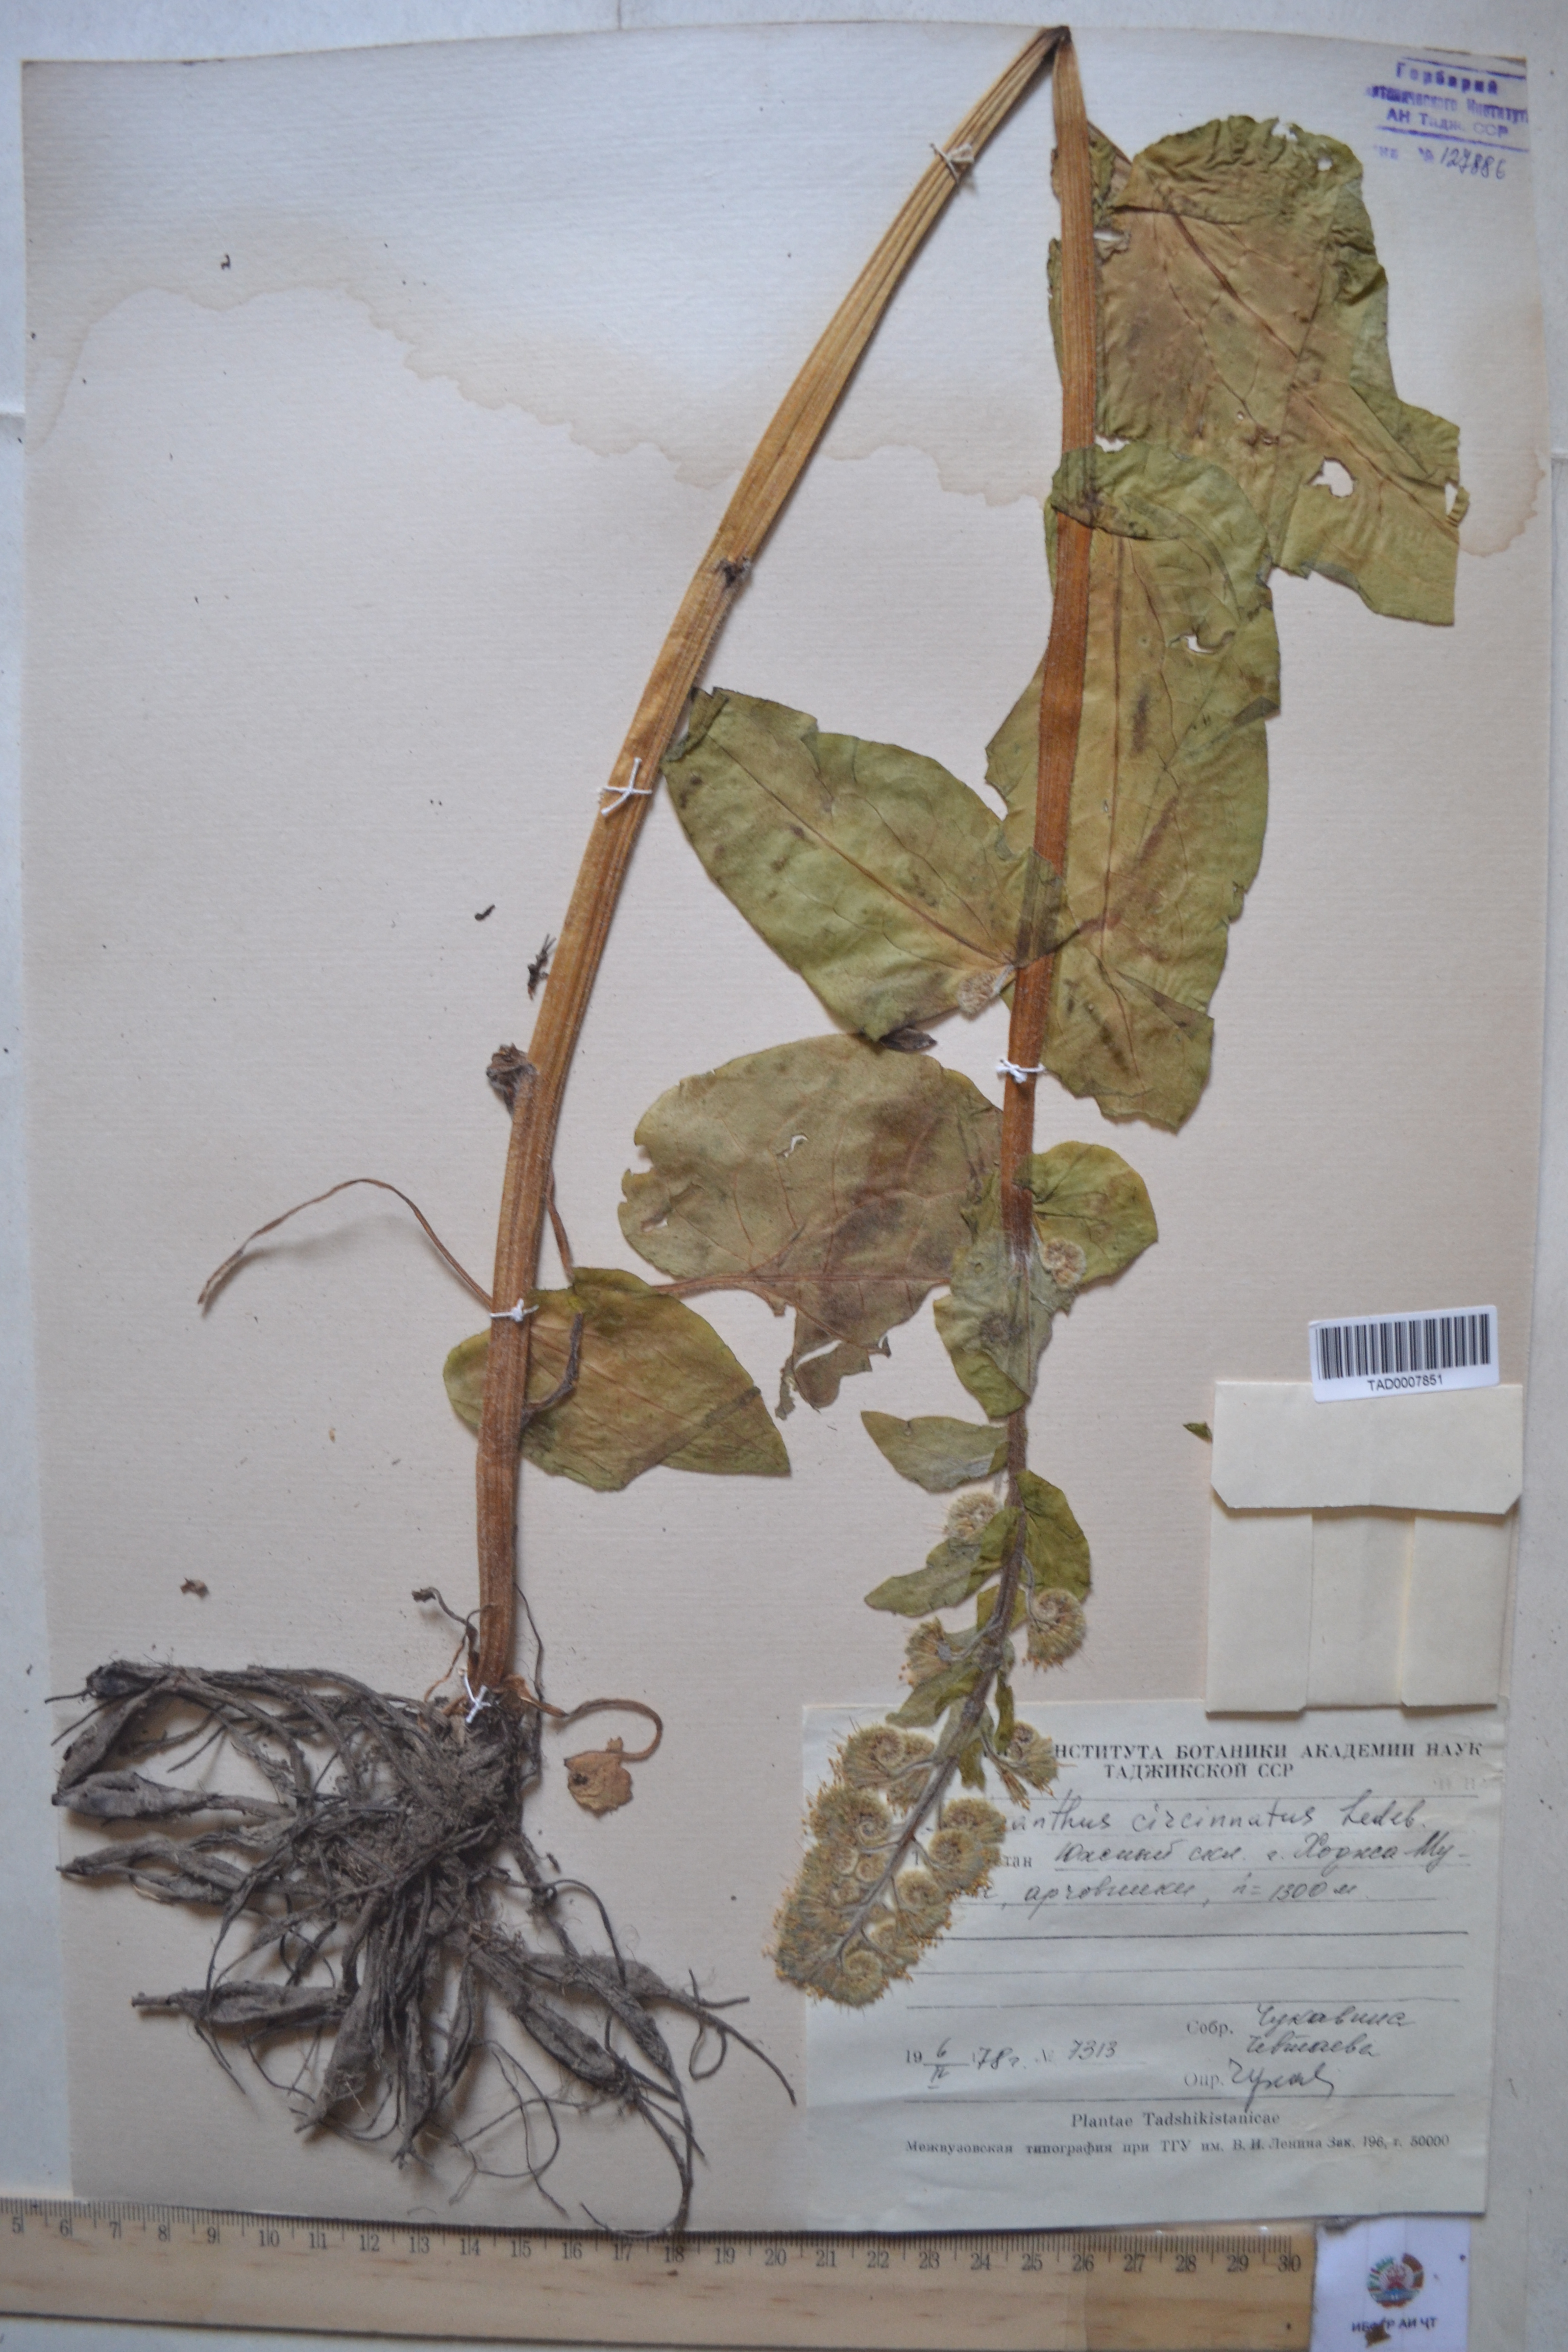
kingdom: Plantae
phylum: Tracheophyta
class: Magnoliopsida
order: Boraginales
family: Boraginaceae
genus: Solenanthus
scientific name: Solenanthus circinnatus
